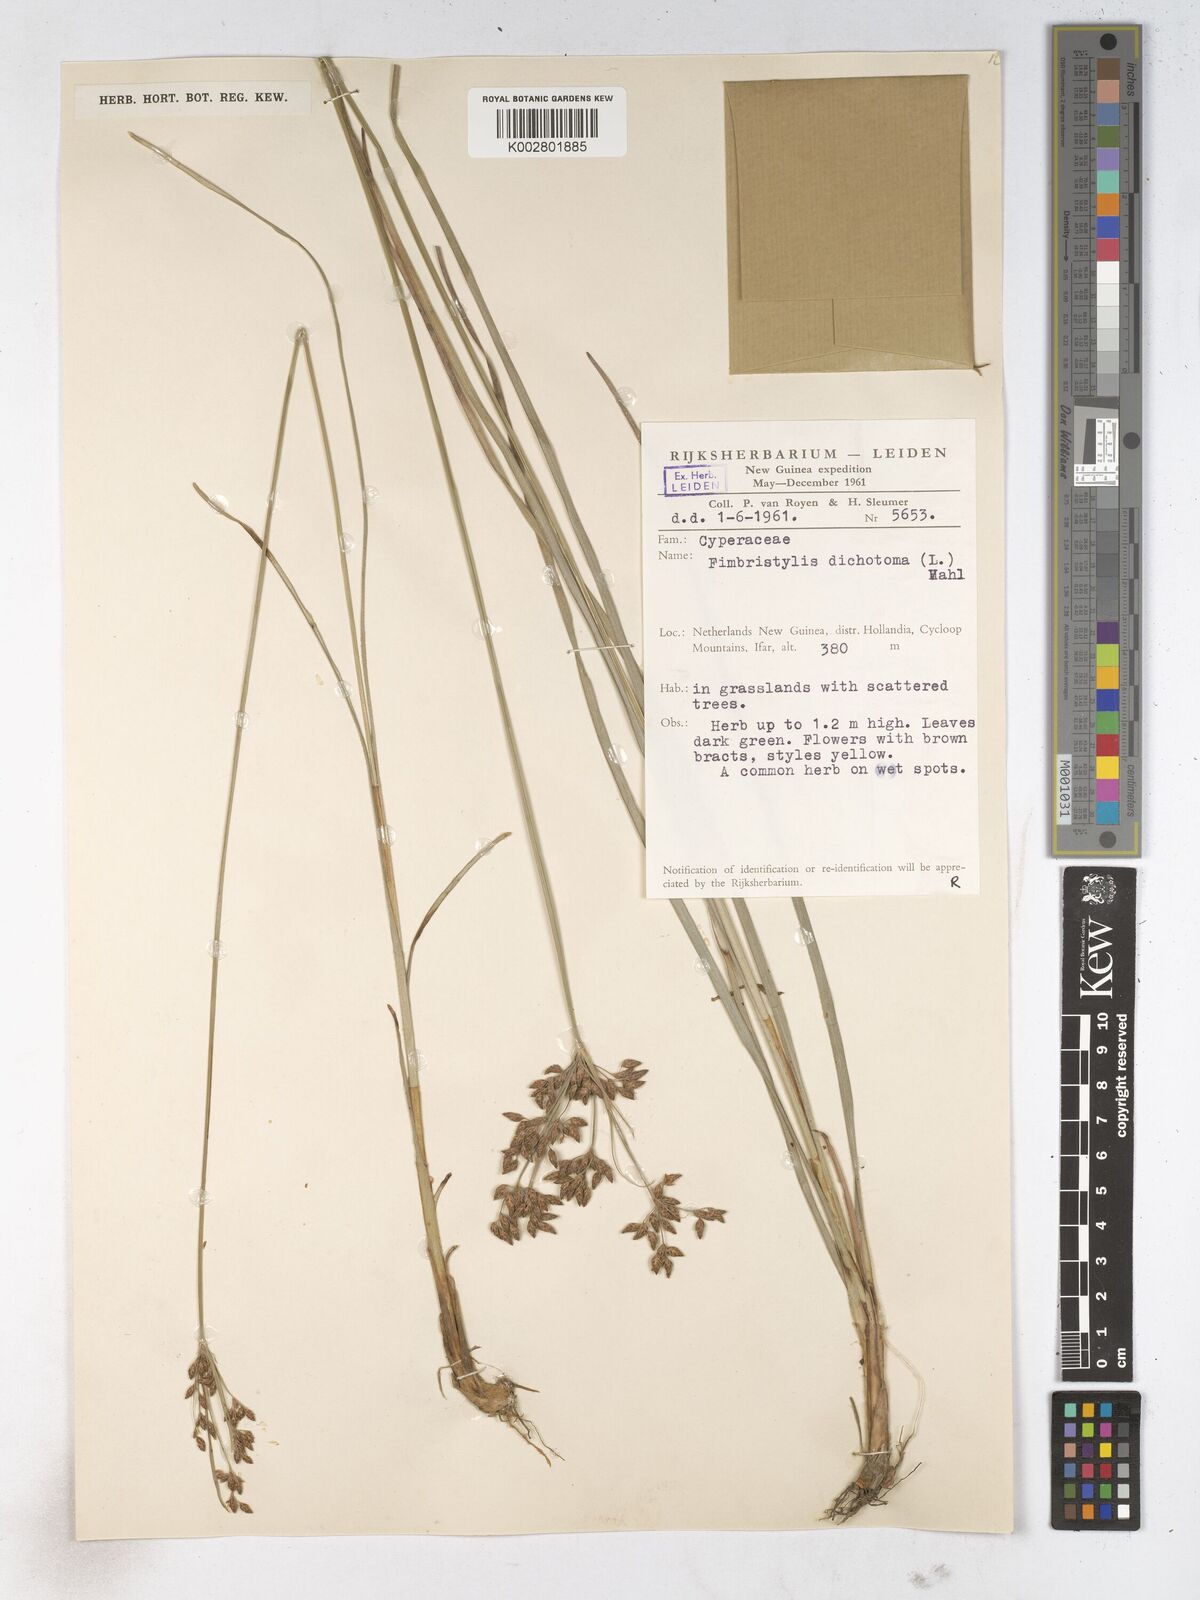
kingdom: Plantae
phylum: Tracheophyta
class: Liliopsida
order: Poales
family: Cyperaceae
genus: Fimbristylis
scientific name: Fimbristylis dichotoma
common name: Forked fimbry
